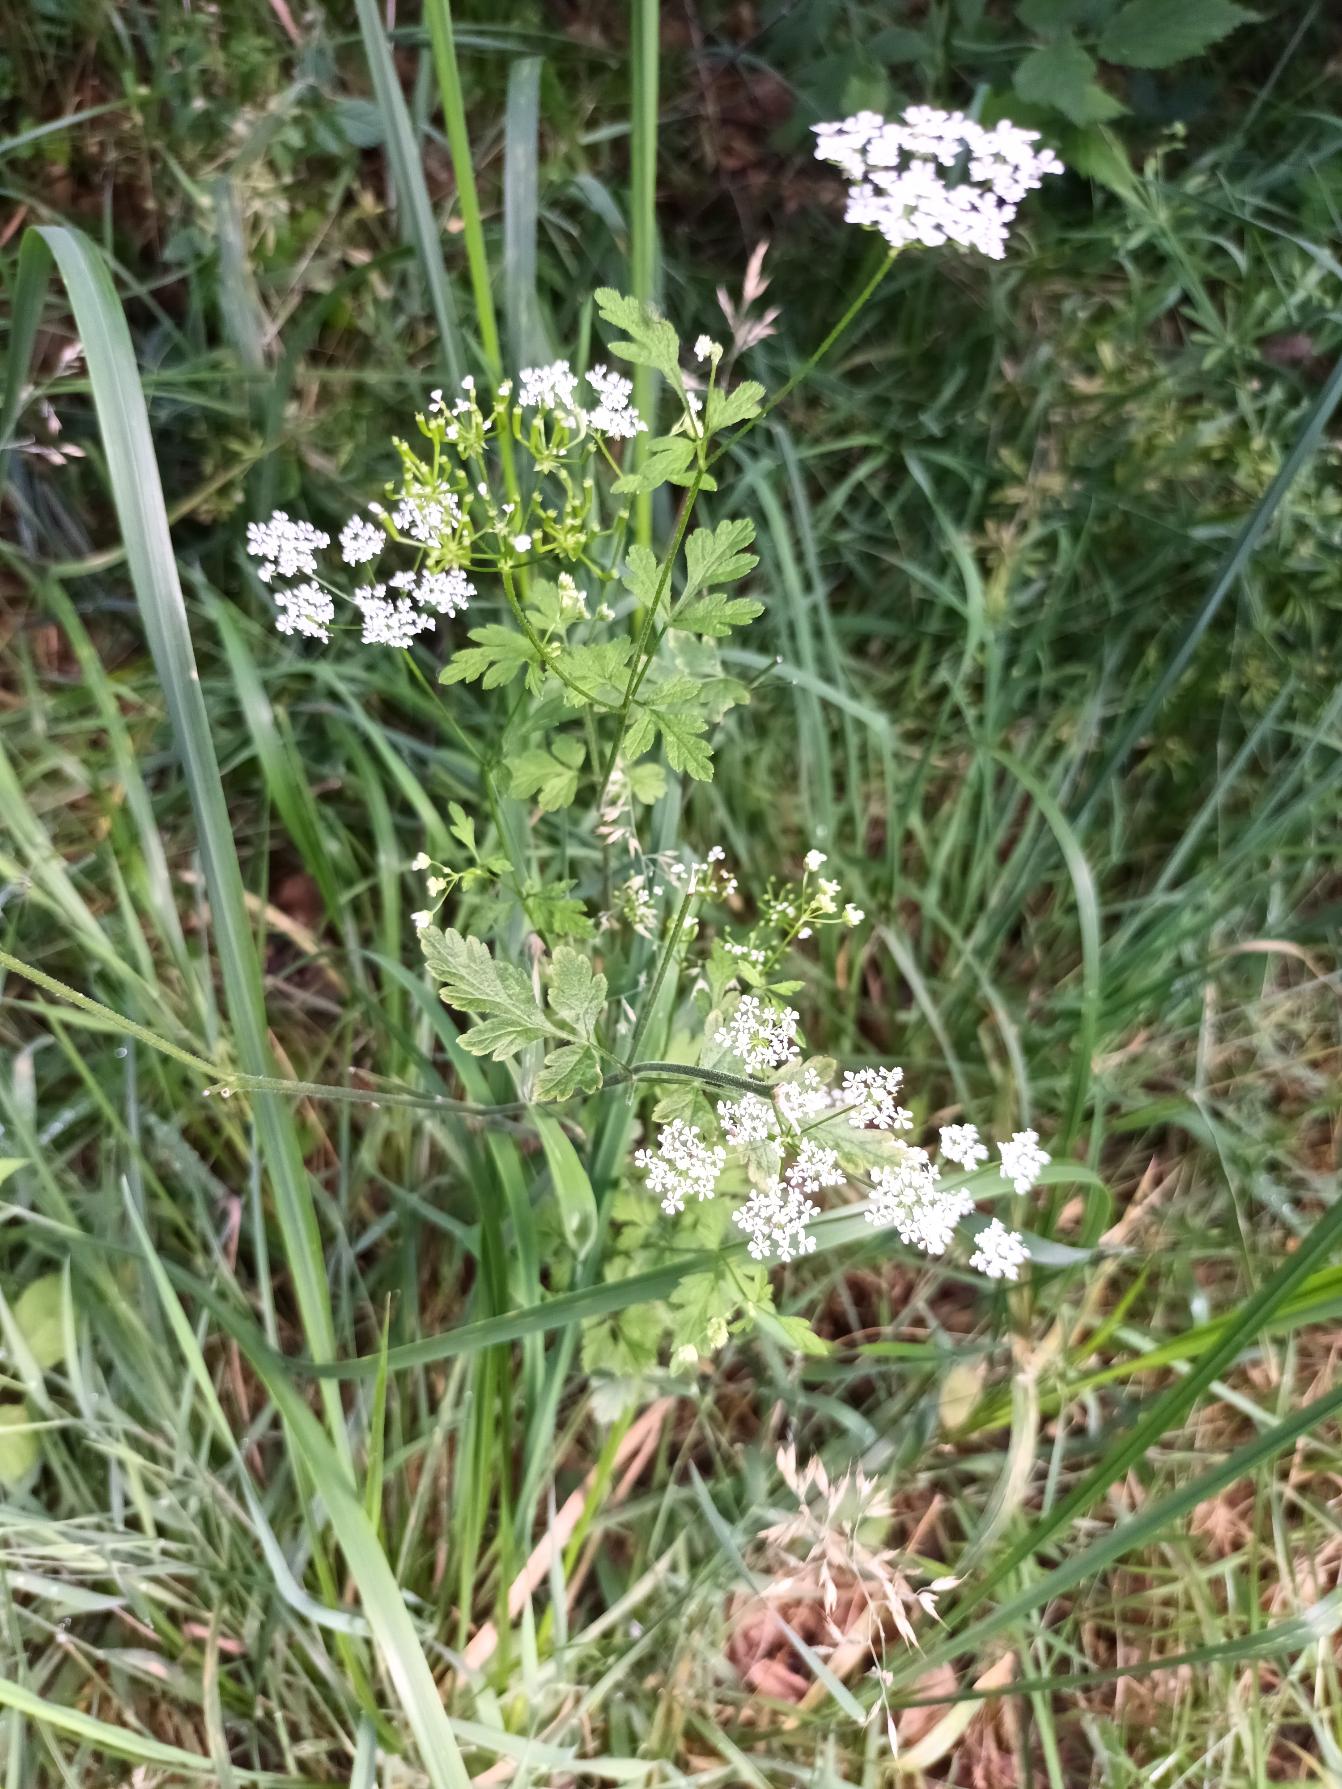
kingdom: Plantae
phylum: Tracheophyta
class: Magnoliopsida
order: Apiales
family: Apiaceae
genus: Chaerophyllum
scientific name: Chaerophyllum temulum
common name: Almindelig hulsvøb
